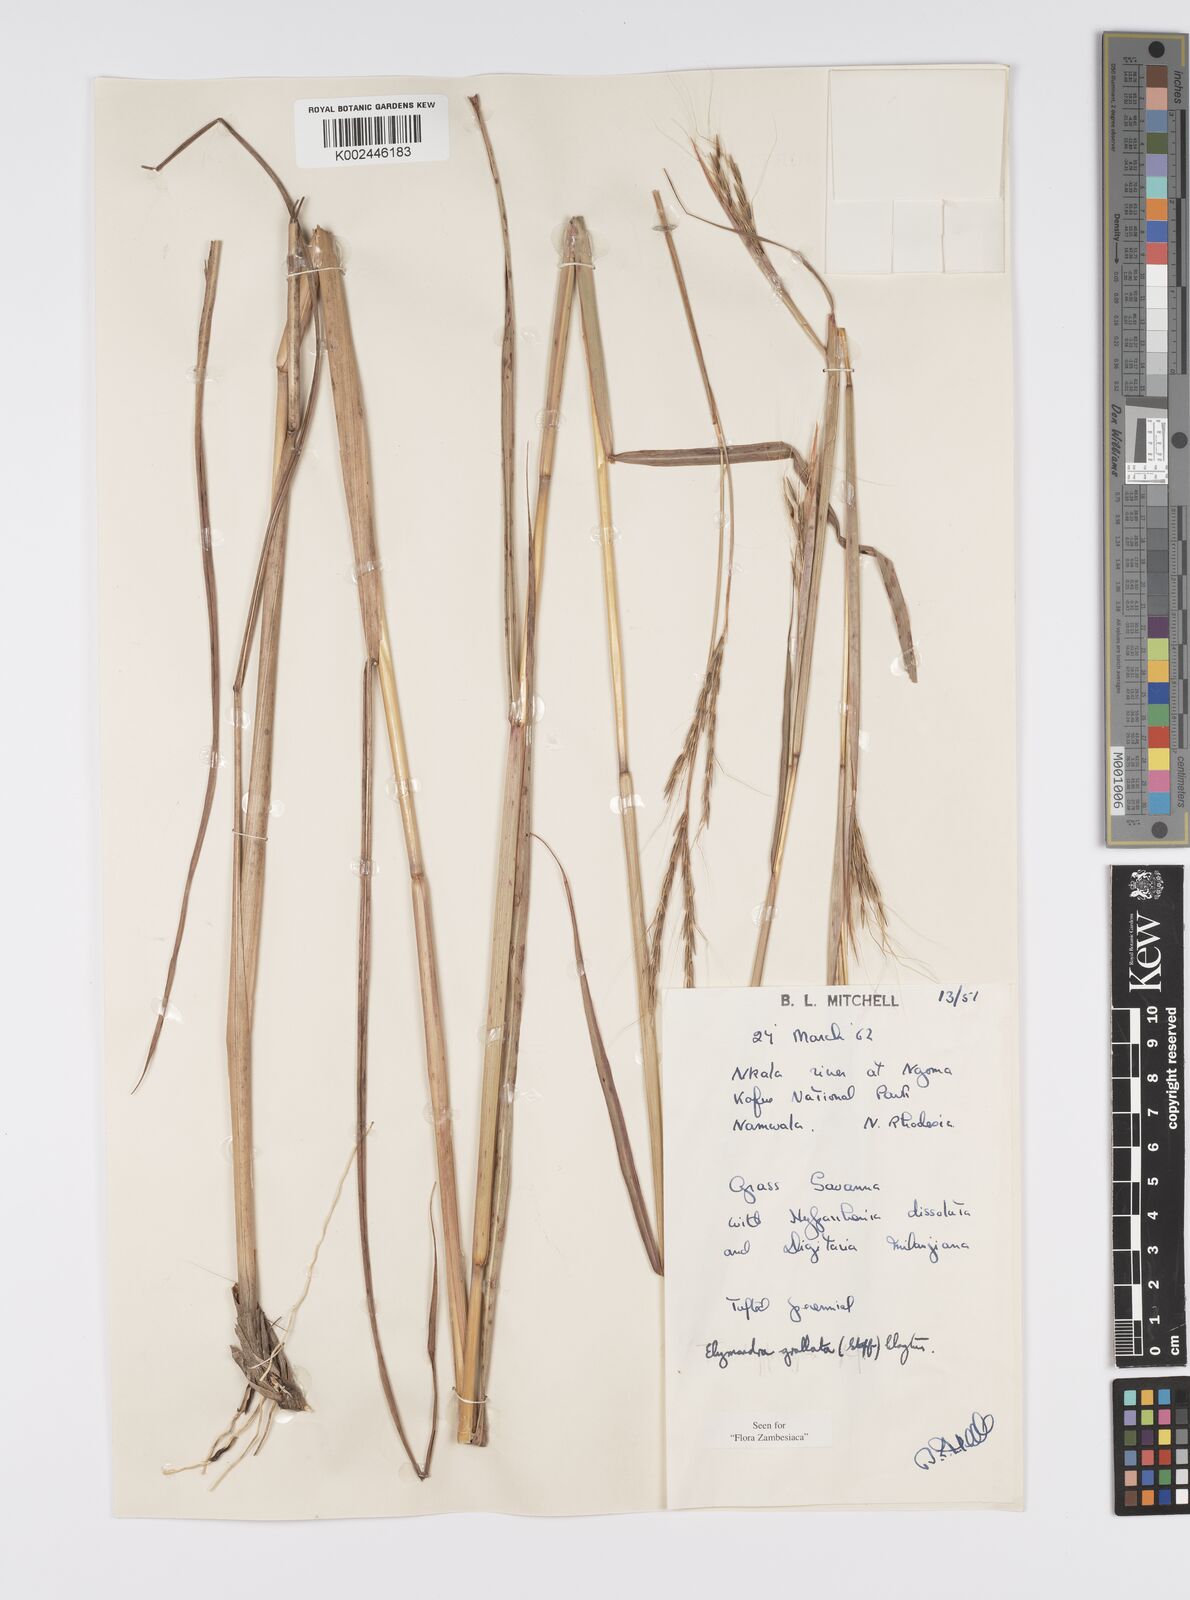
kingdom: Plantae
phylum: Tracheophyta
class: Liliopsida
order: Poales
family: Poaceae
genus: Elymandra
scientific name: Elymandra grallata
